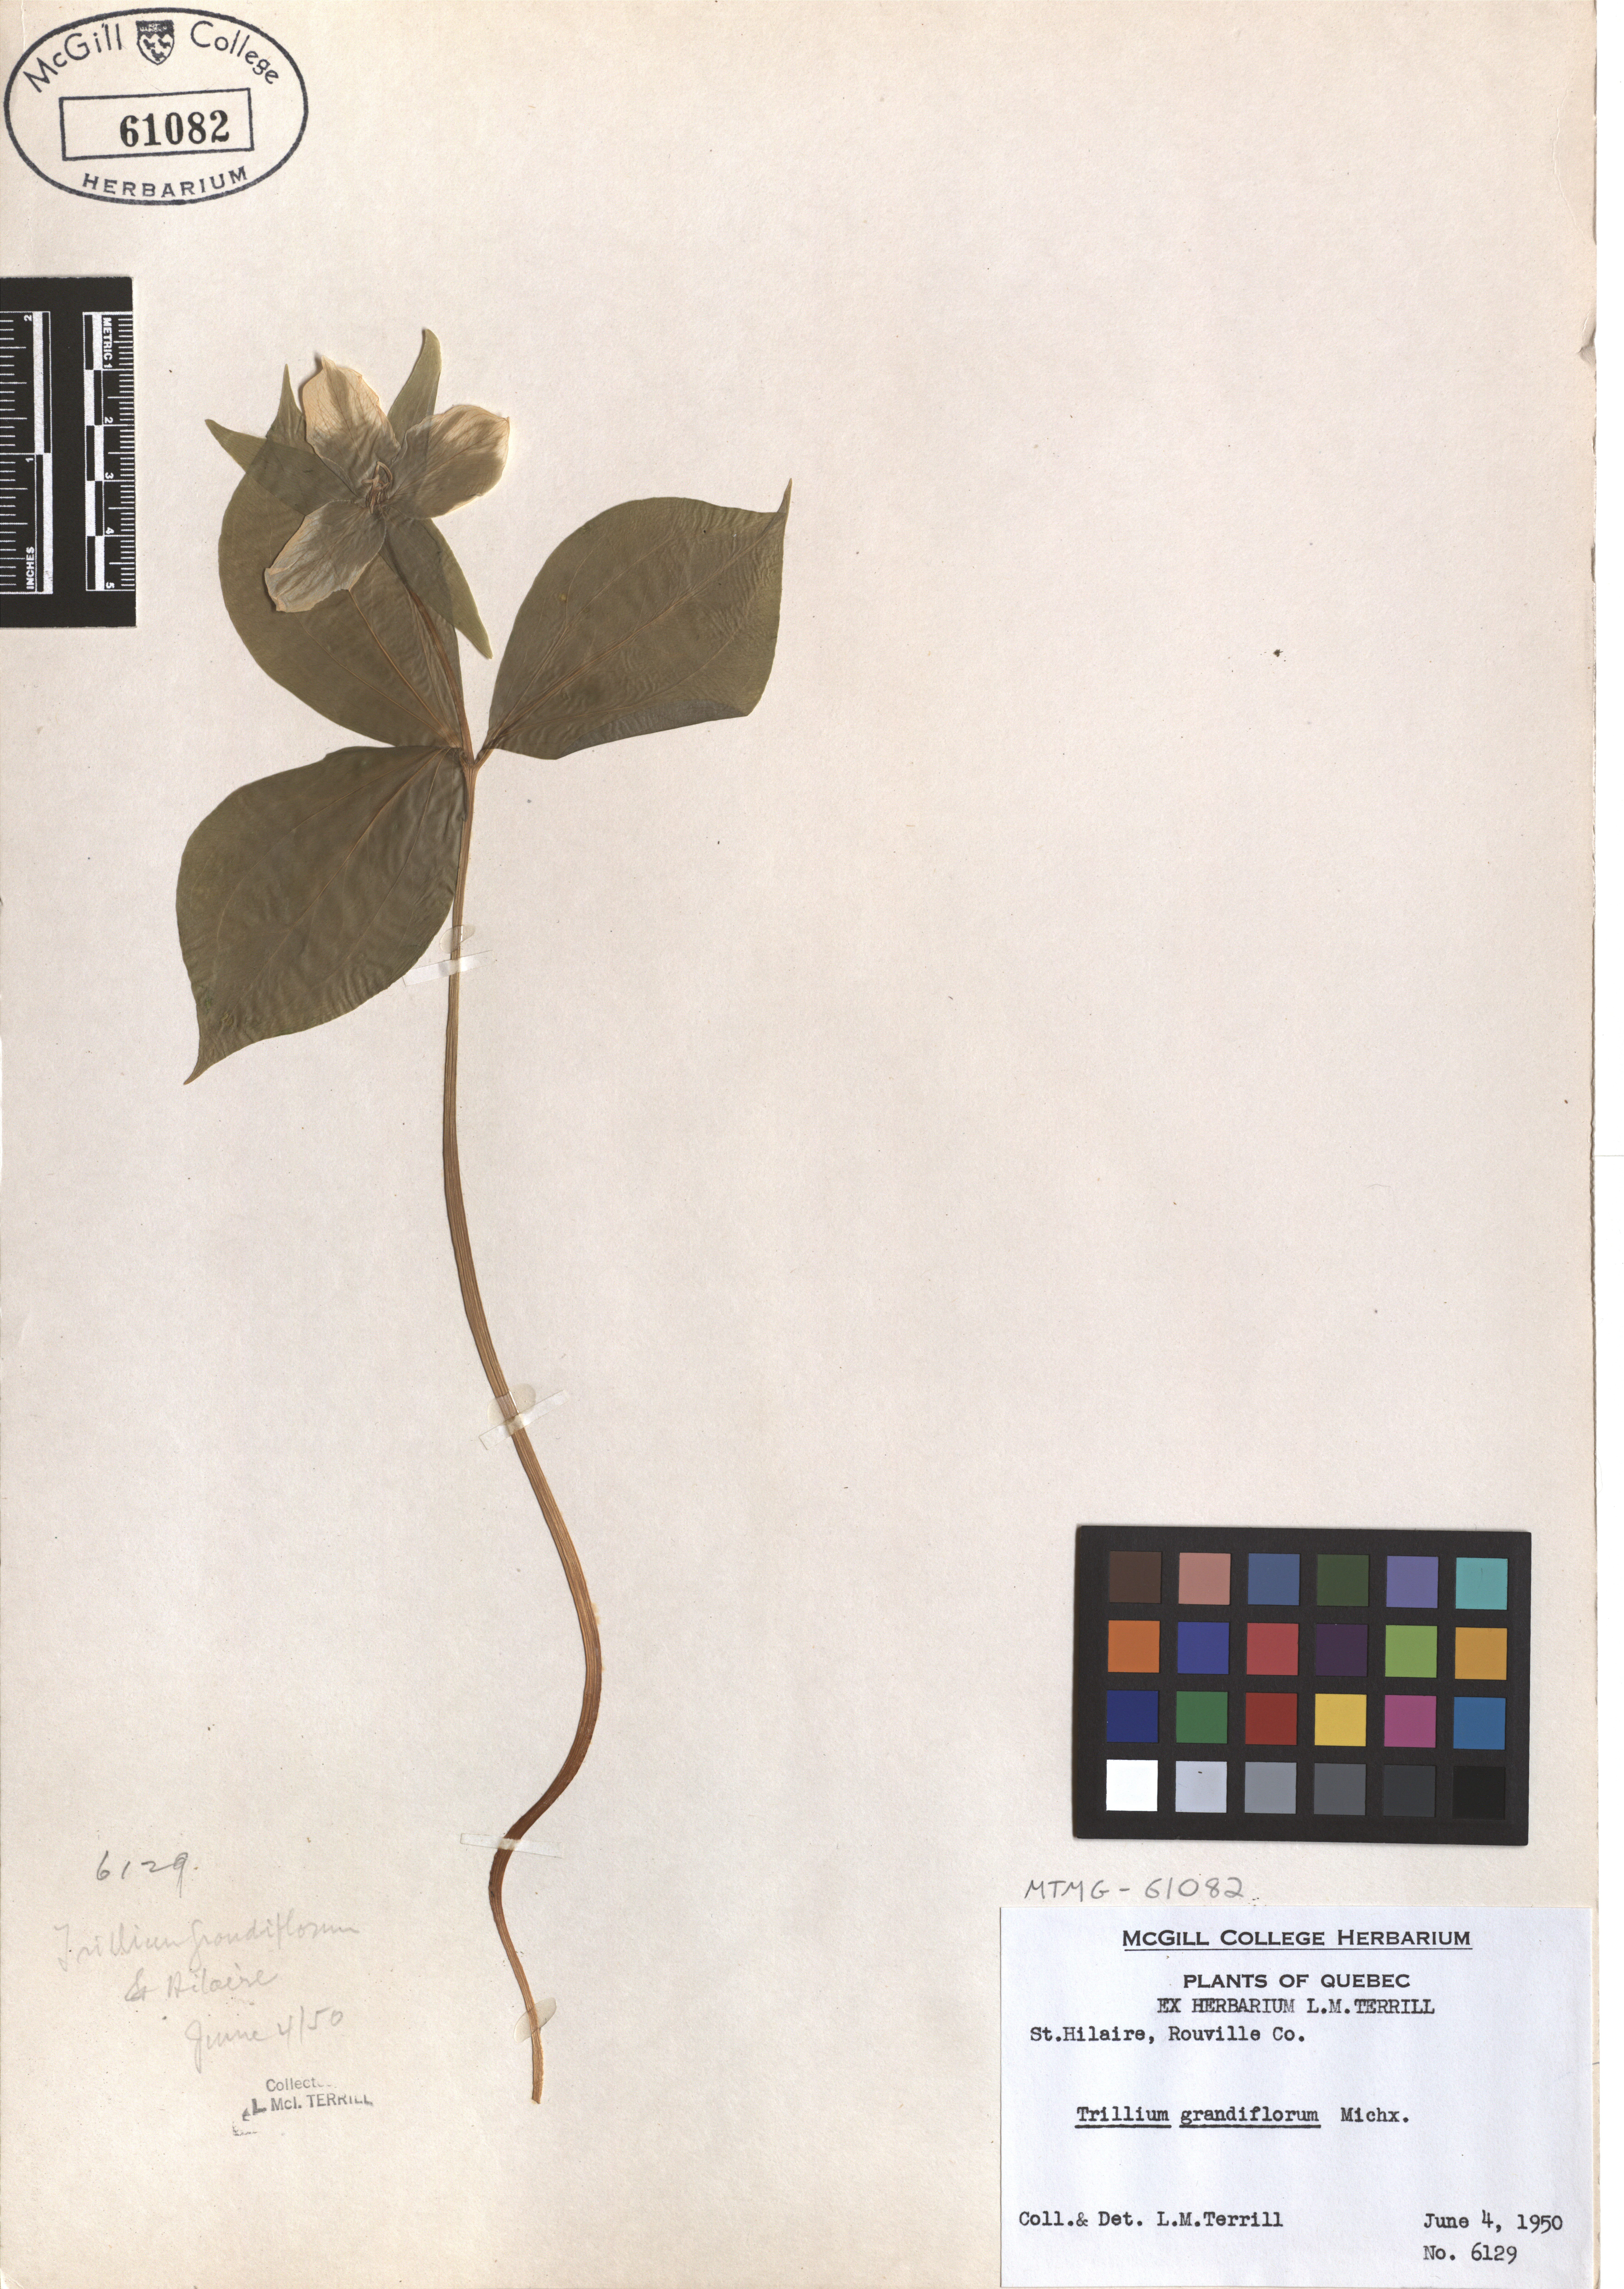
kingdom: Plantae
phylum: Tracheophyta
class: Liliopsida
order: Liliales
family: Melanthiaceae
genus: Trillium
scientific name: Trillium grandiflorum
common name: Great white trillium
